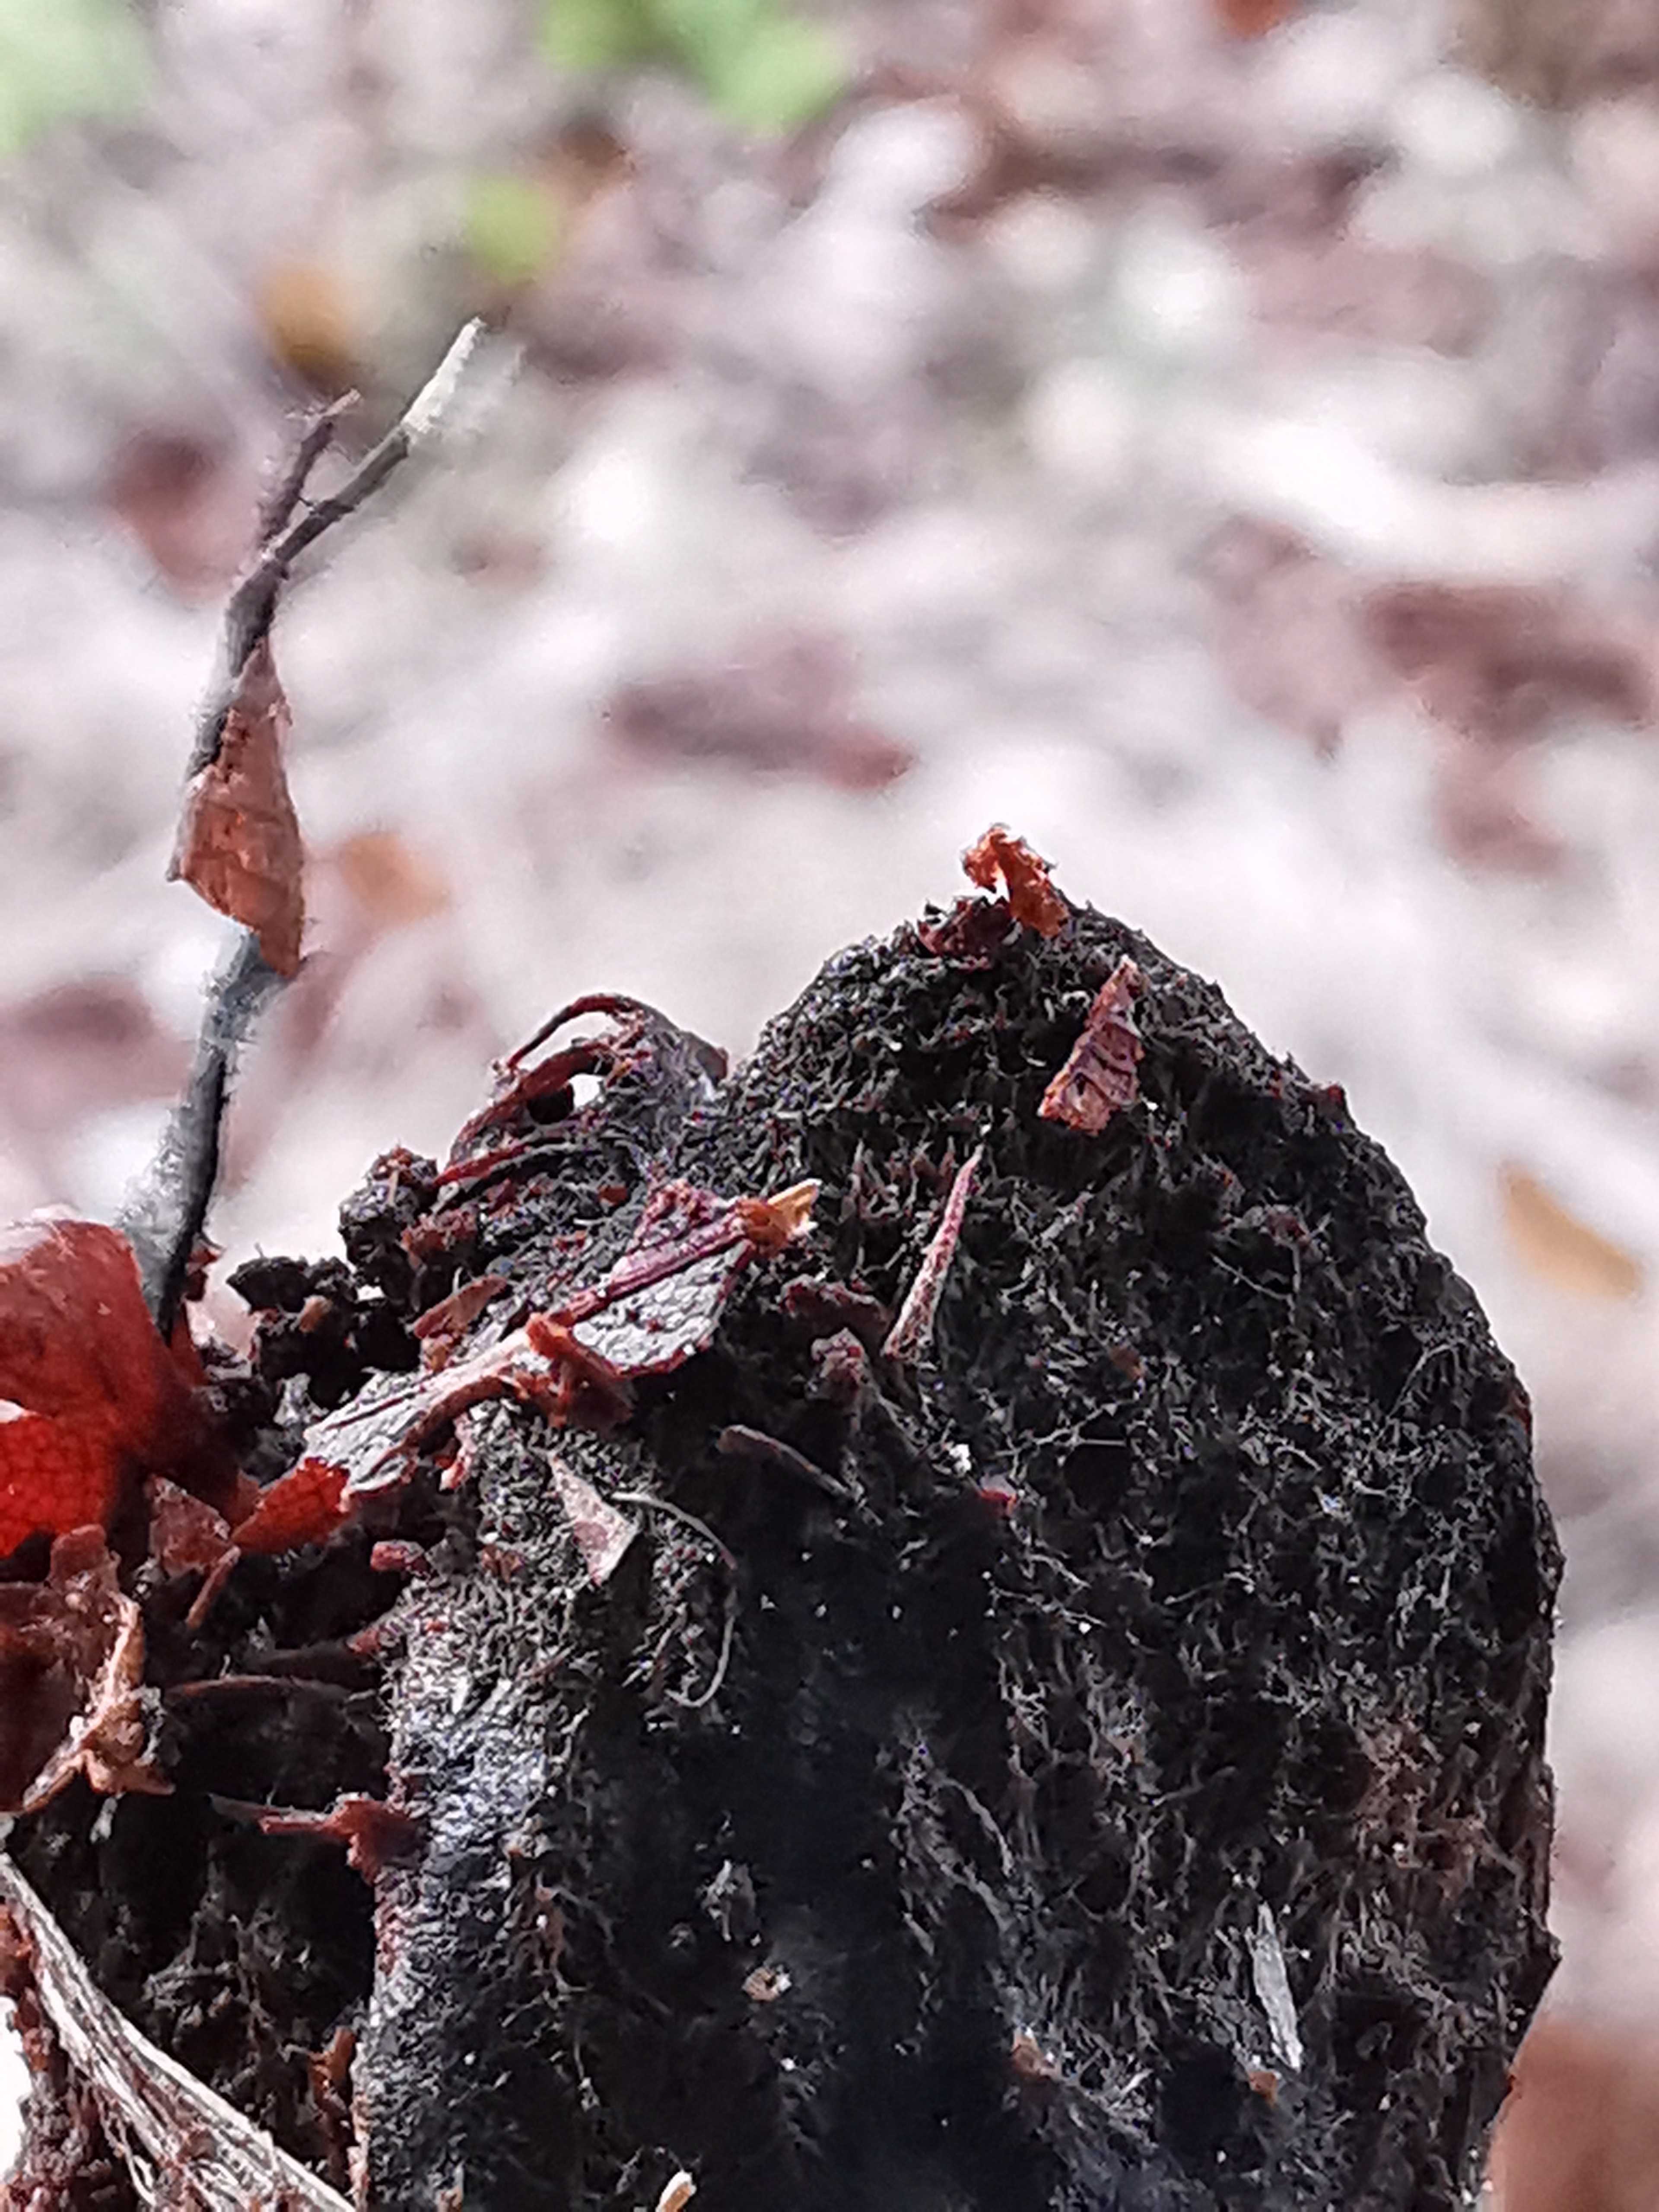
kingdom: Fungi
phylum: Ascomycota
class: Sordariomycetes
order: Xylariales
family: Xylariaceae
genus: Xylaria
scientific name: Xylaria carpophila
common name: bogskål-stødsvamp
